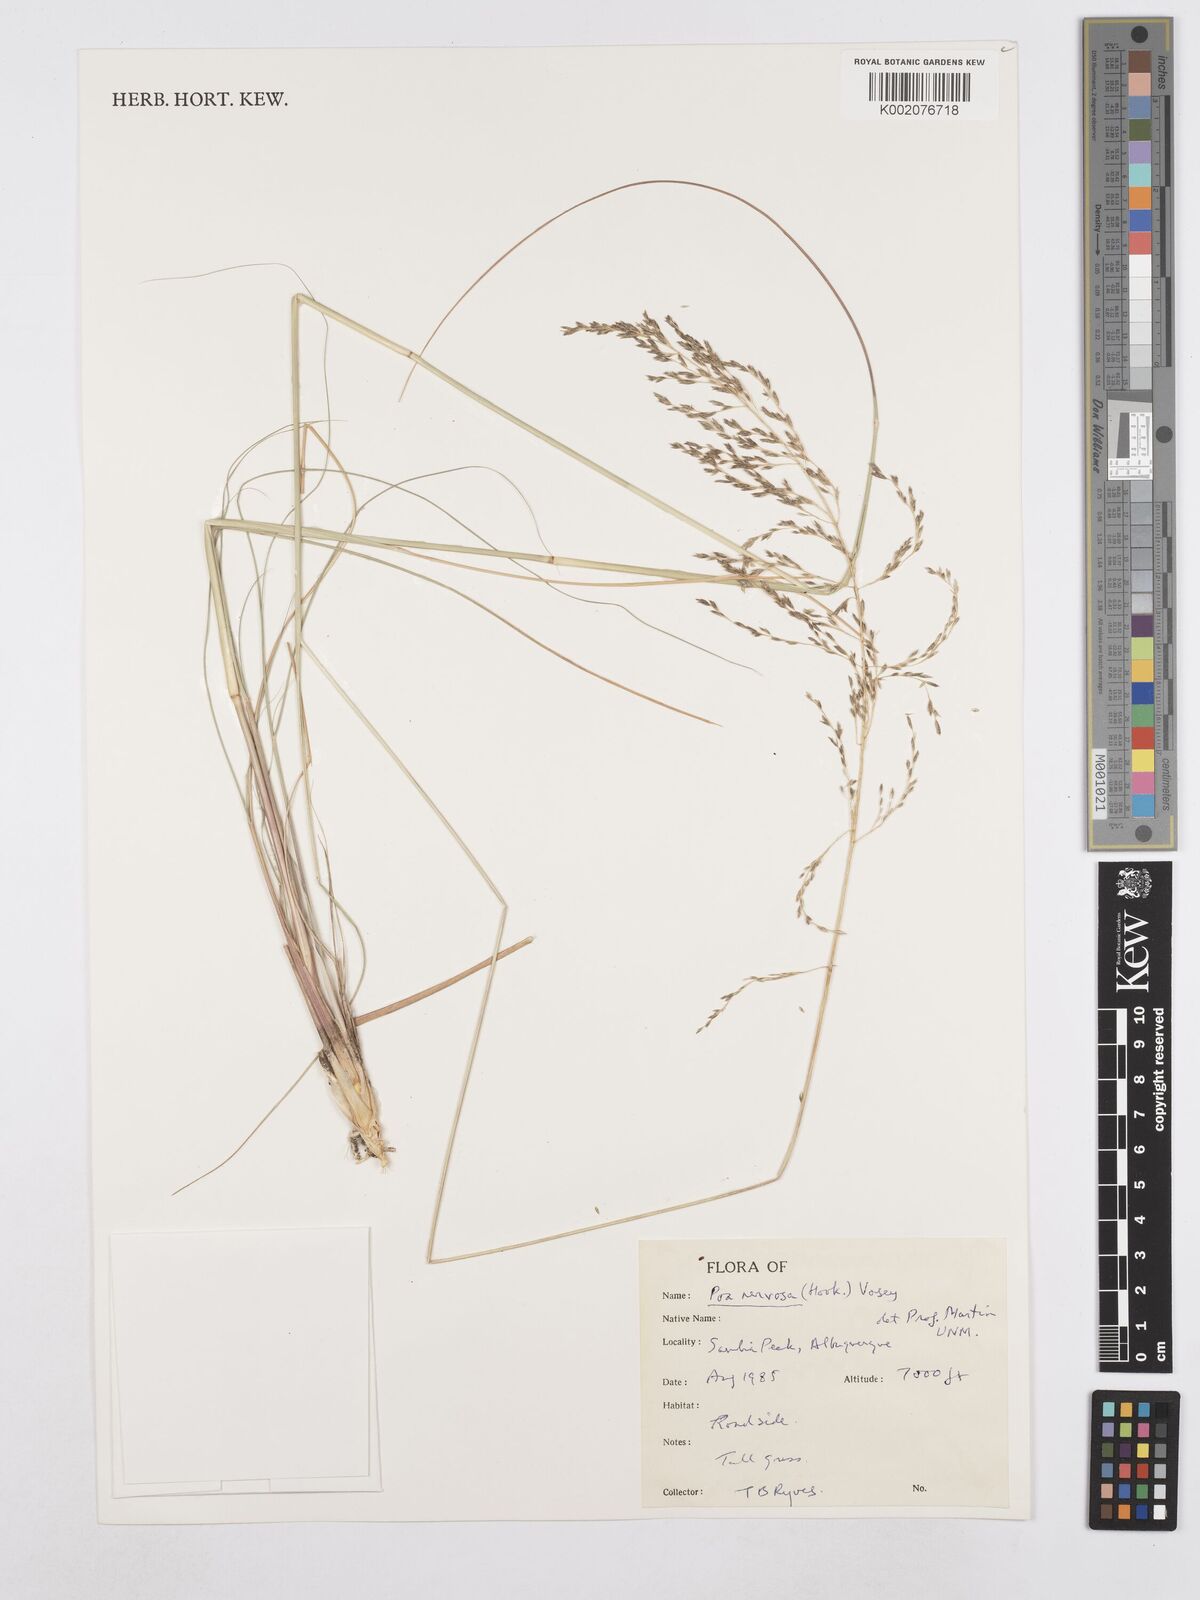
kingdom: Plantae
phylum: Tracheophyta
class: Liliopsida
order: Poales
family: Poaceae
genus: Poa
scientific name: Poa nervosa
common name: Hooker's bluegrass
